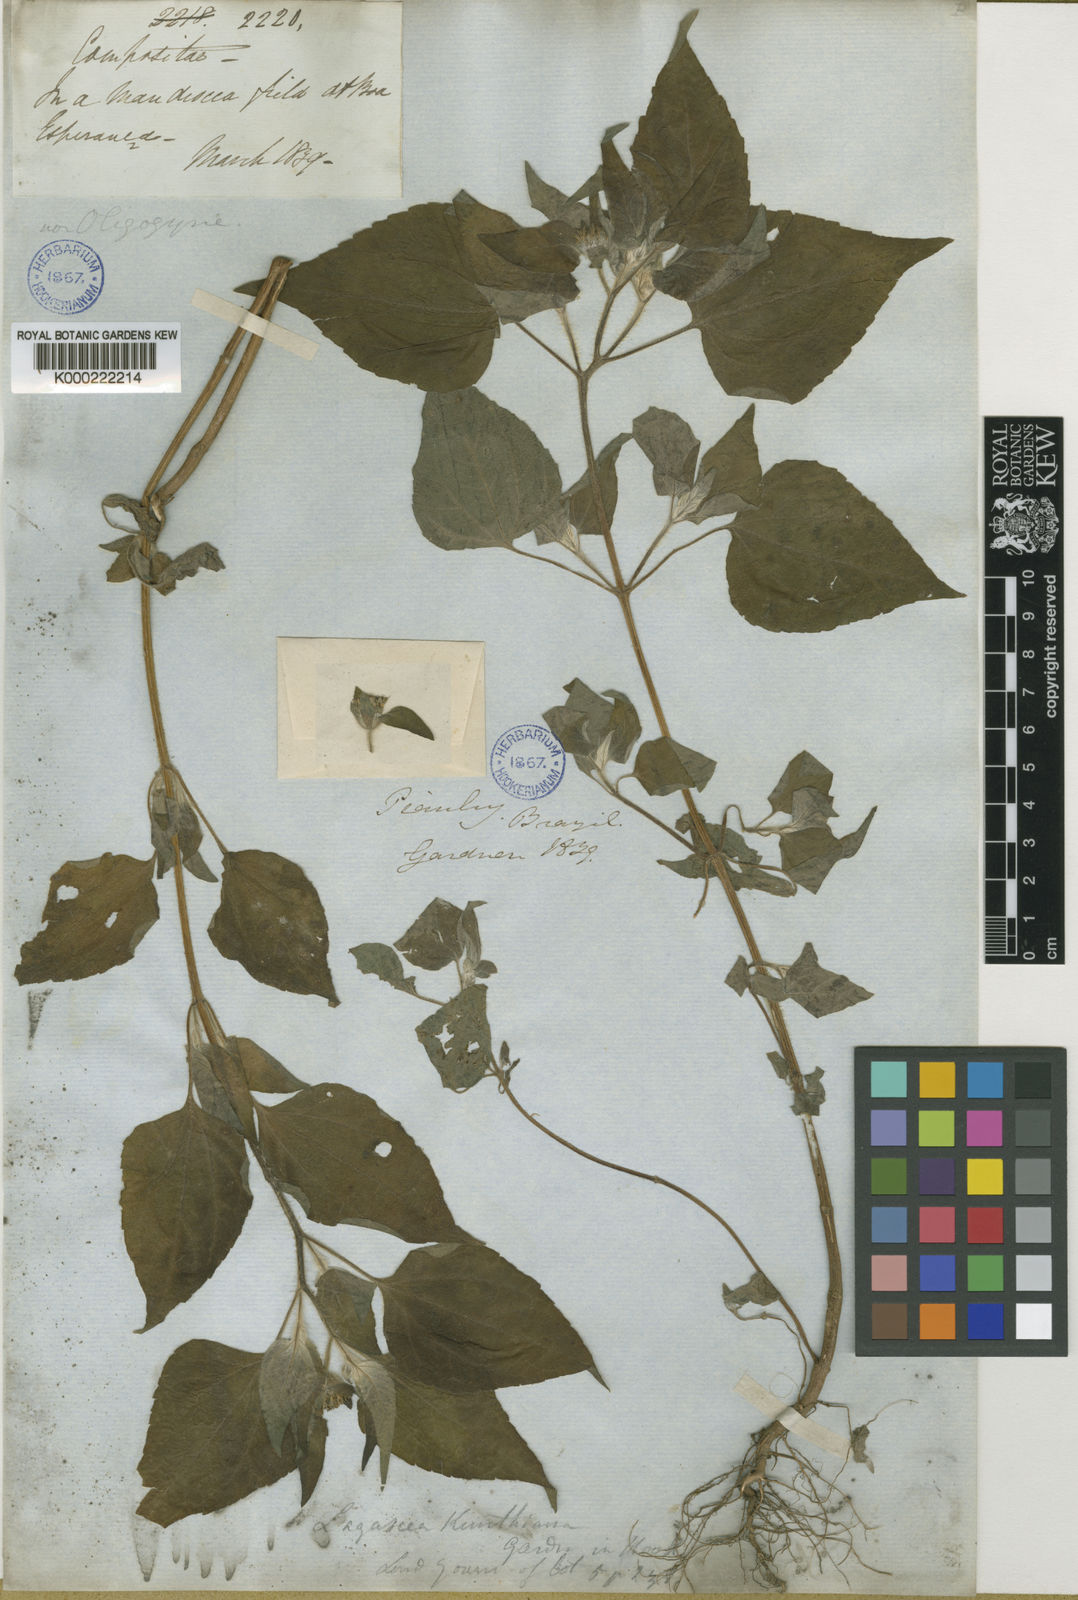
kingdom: Plantae
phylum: Tracheophyta
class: Magnoliopsida
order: Asterales
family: Asteraceae
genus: Lagascea
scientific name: Lagascea mollis
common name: Silkleaf
